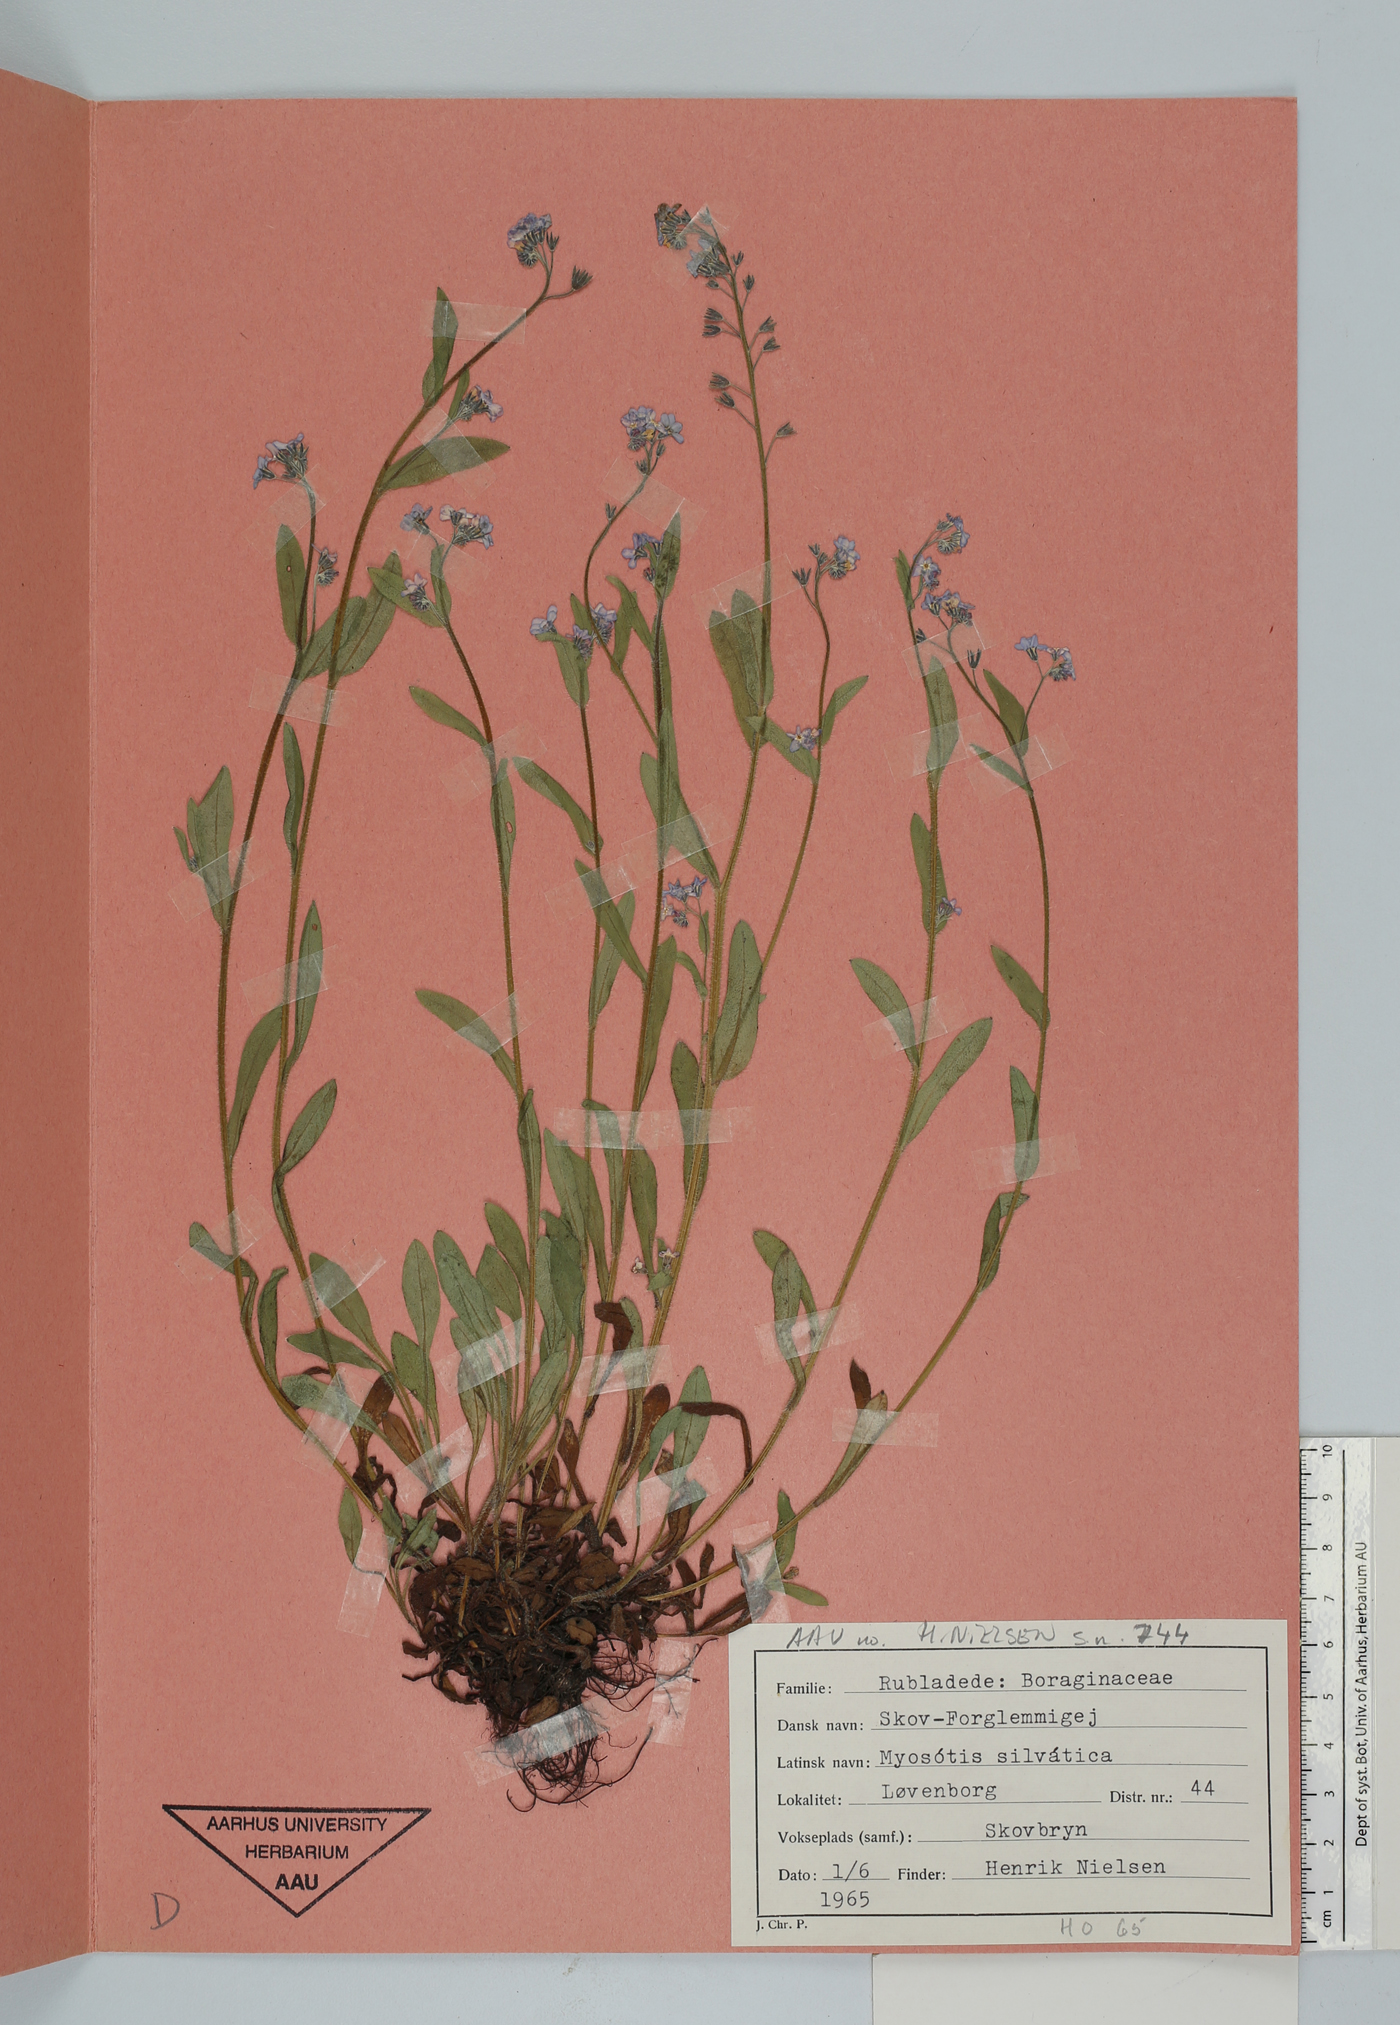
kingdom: Plantae
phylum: Tracheophyta
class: Magnoliopsida
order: Boraginales
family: Boraginaceae
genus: Myosotis
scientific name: Myosotis sylvatica
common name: Wood forget-me-not
